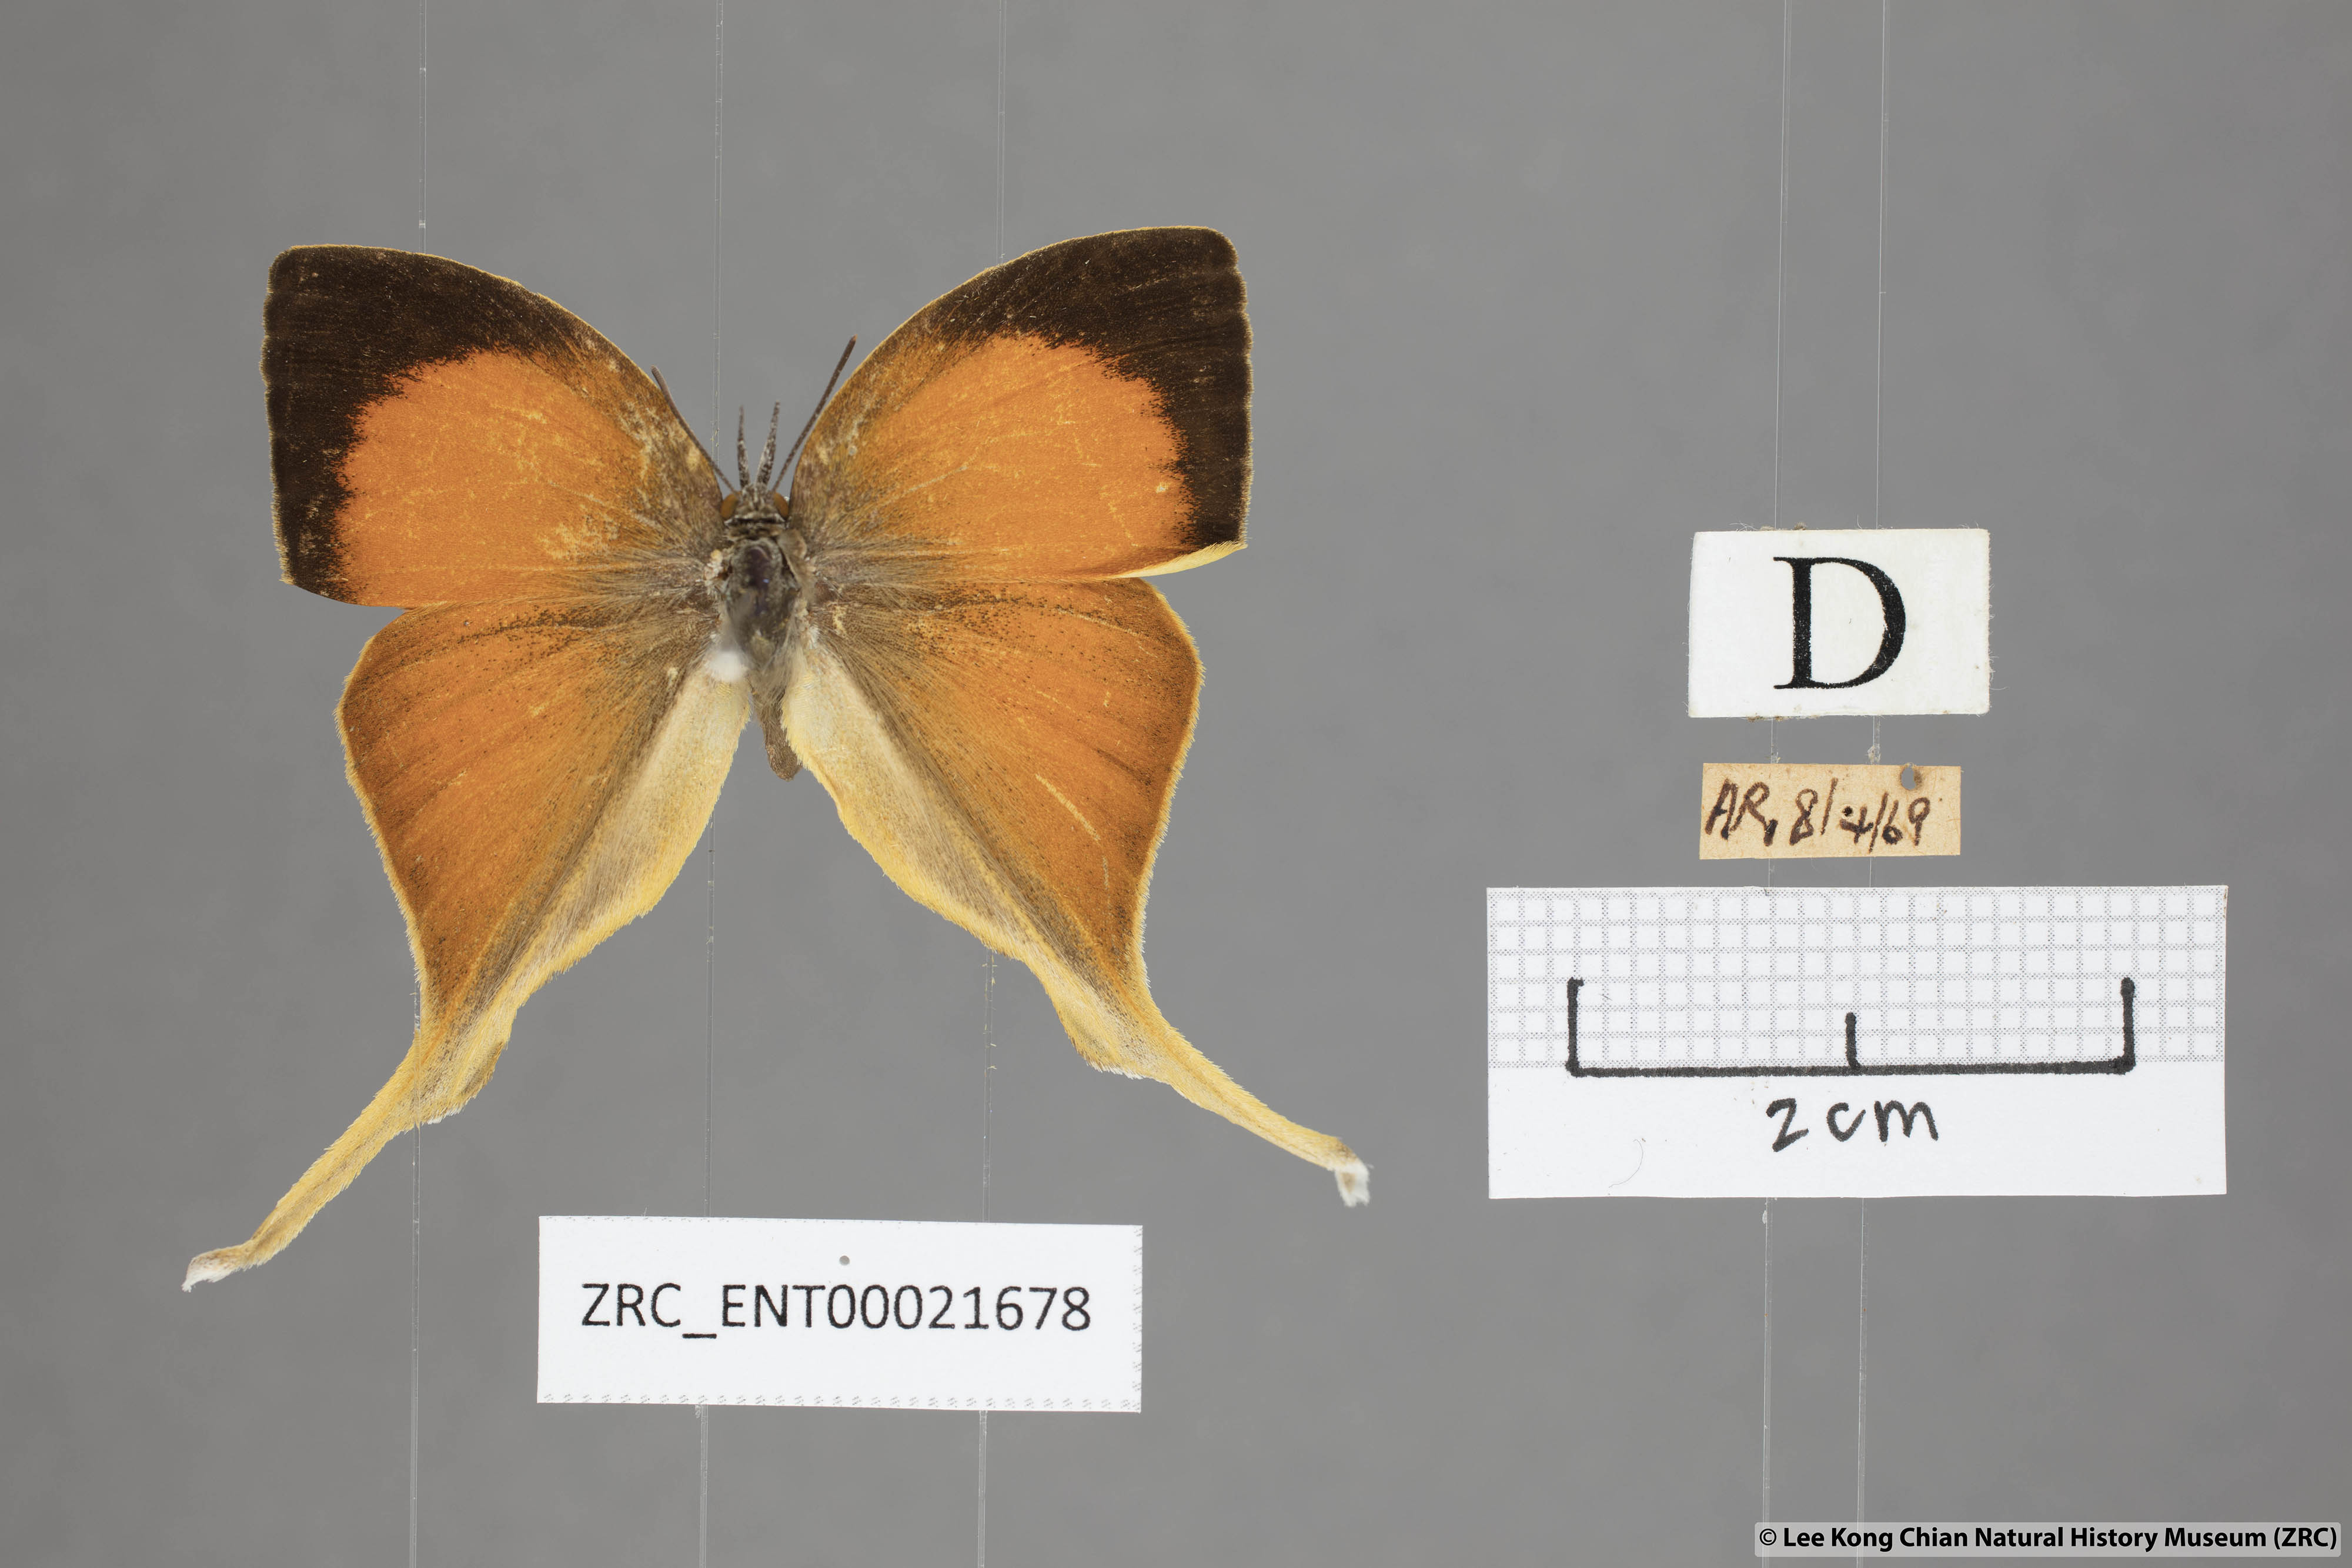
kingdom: Animalia
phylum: Arthropoda
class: Insecta
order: Lepidoptera
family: Lycaenidae
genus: Loxura
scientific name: Loxura cassiopeia
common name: Malayan yamfly
